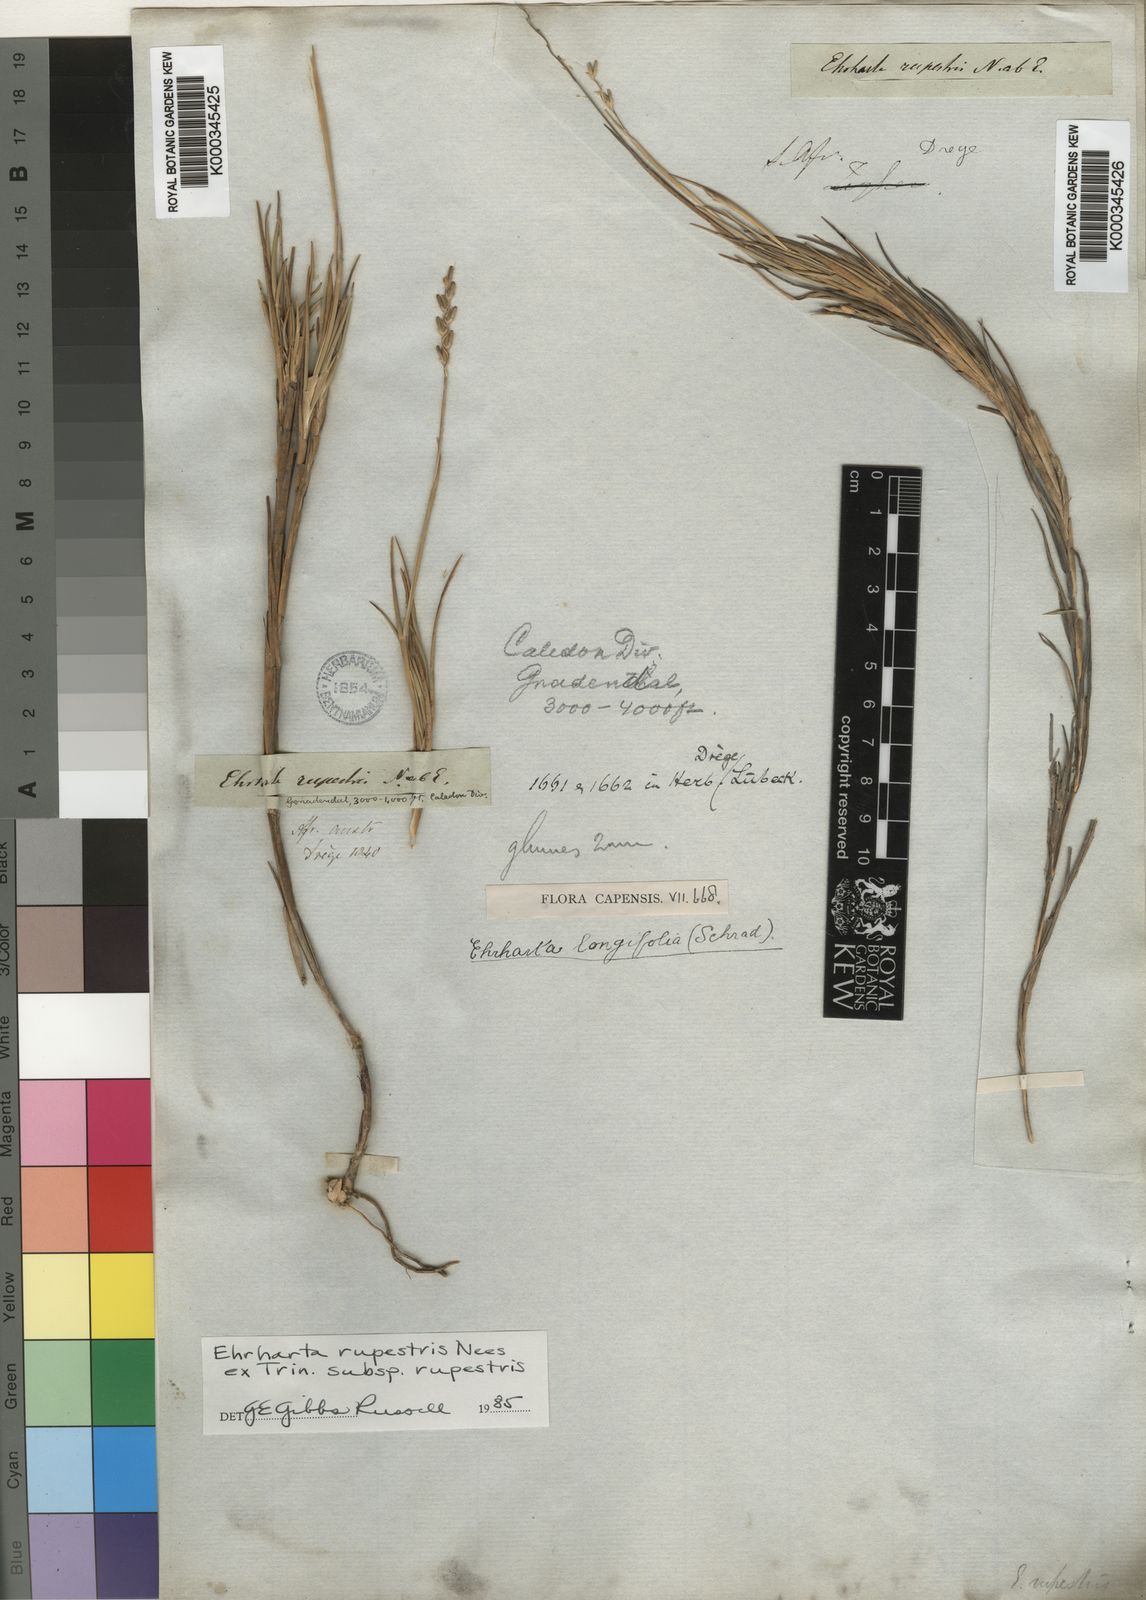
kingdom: Plantae
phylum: Tracheophyta
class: Liliopsida
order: Poales
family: Poaceae
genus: Ehrharta
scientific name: Ehrharta rupestris
